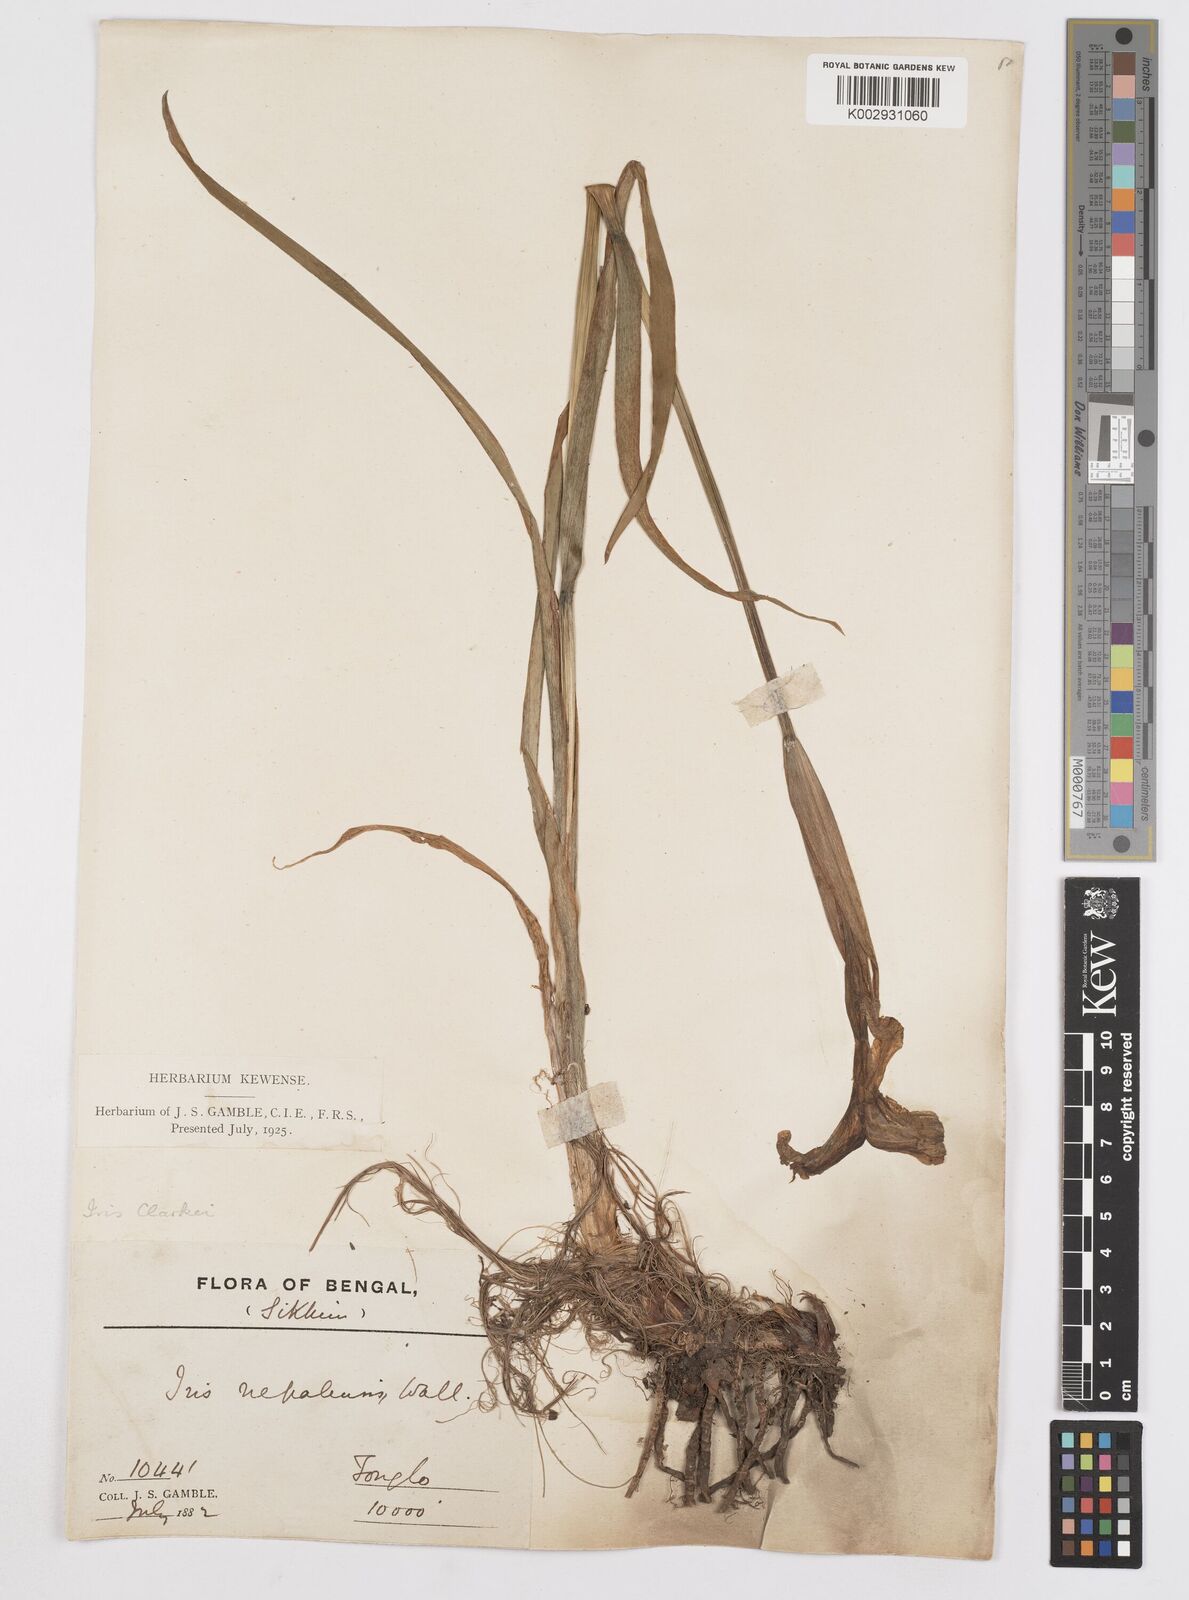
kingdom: Plantae
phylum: Tracheophyta
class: Liliopsida
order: Asparagales
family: Iridaceae
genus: Iris
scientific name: Iris clarkei
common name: Tibet iris
